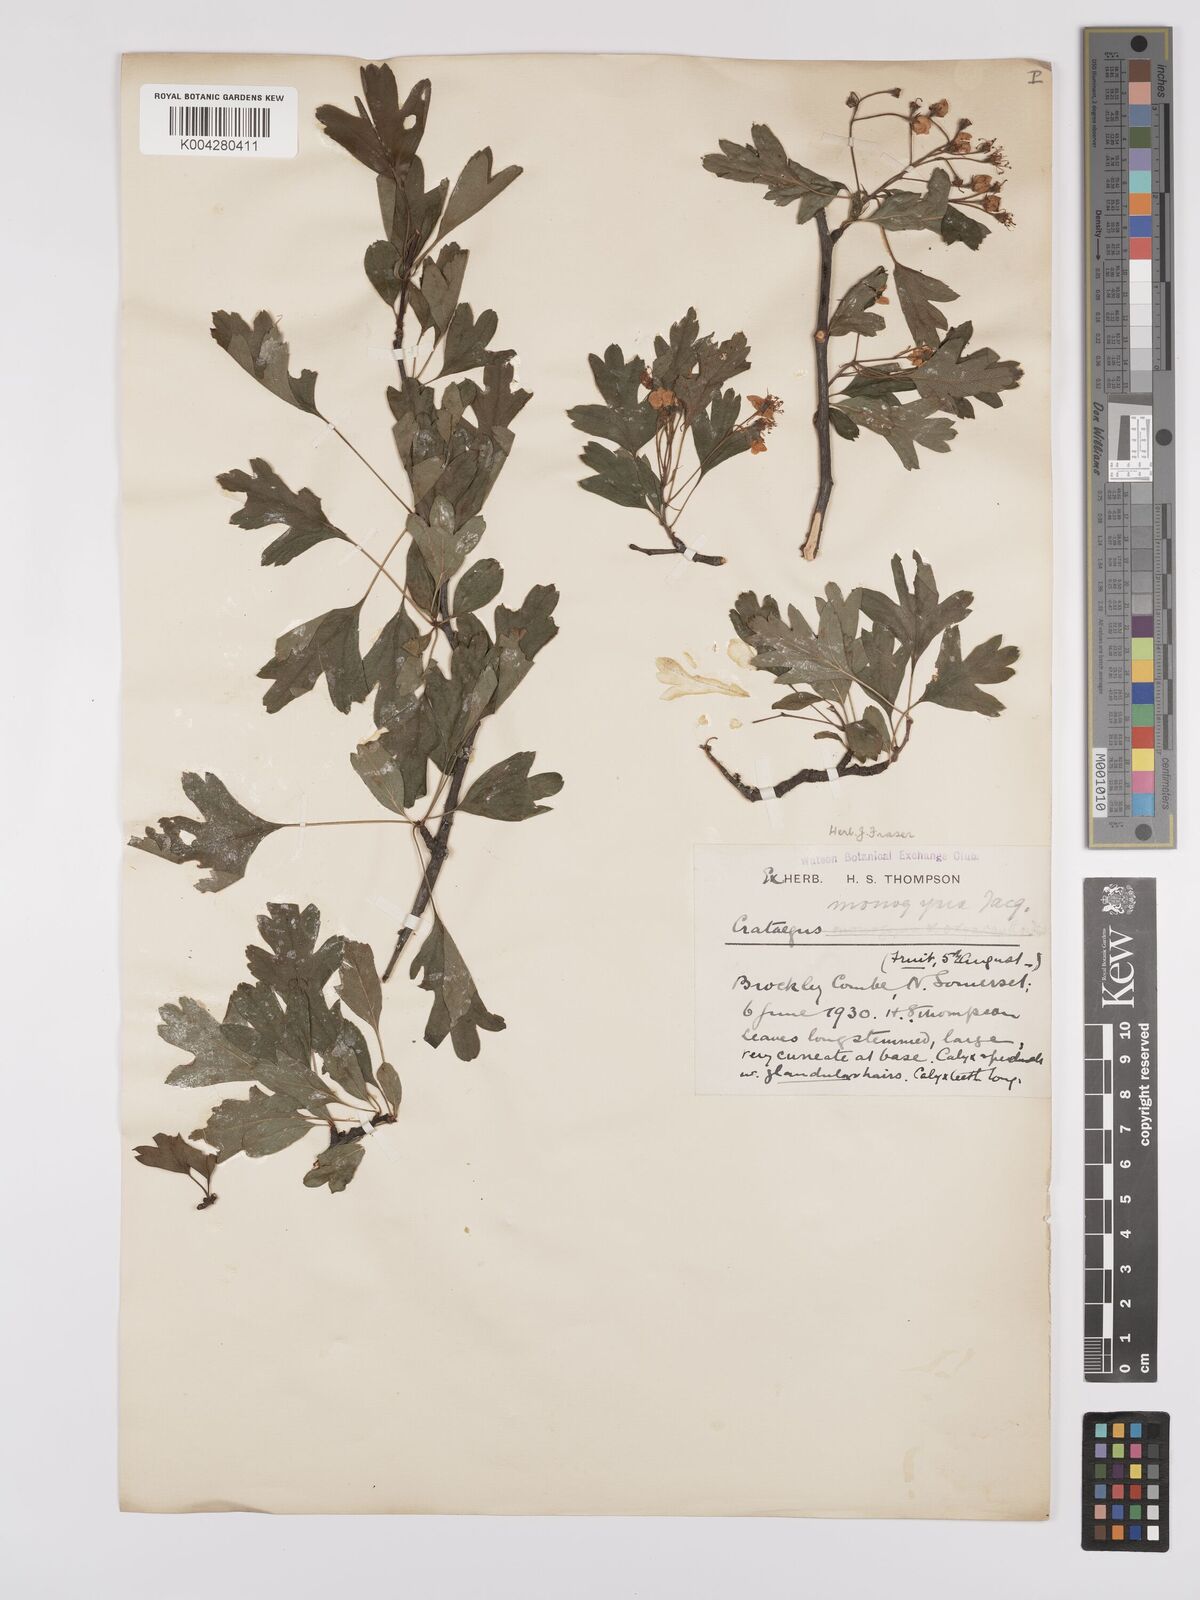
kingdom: Plantae
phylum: Tracheophyta
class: Magnoliopsida
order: Rosales
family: Rosaceae
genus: Crataegus
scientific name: Crataegus monogyna
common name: Hawthorn
